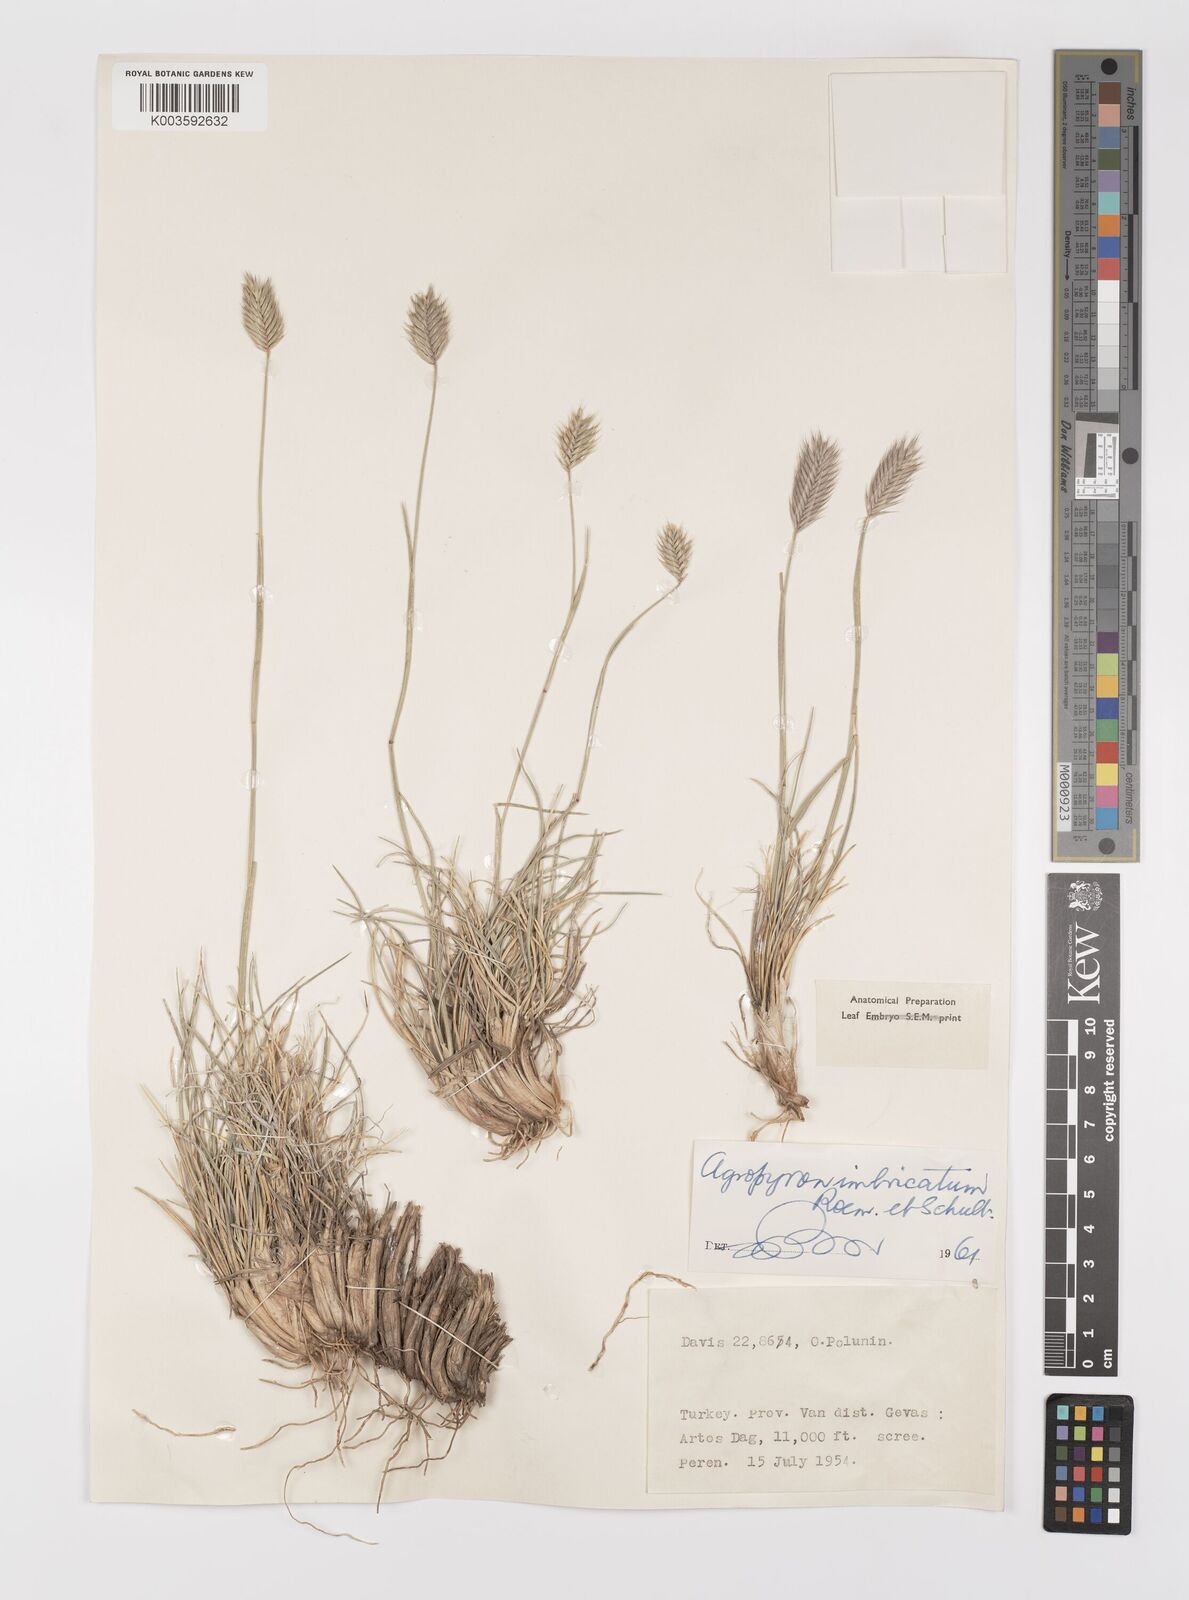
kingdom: Plantae
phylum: Tracheophyta
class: Liliopsida
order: Poales
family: Poaceae
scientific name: Poaceae
